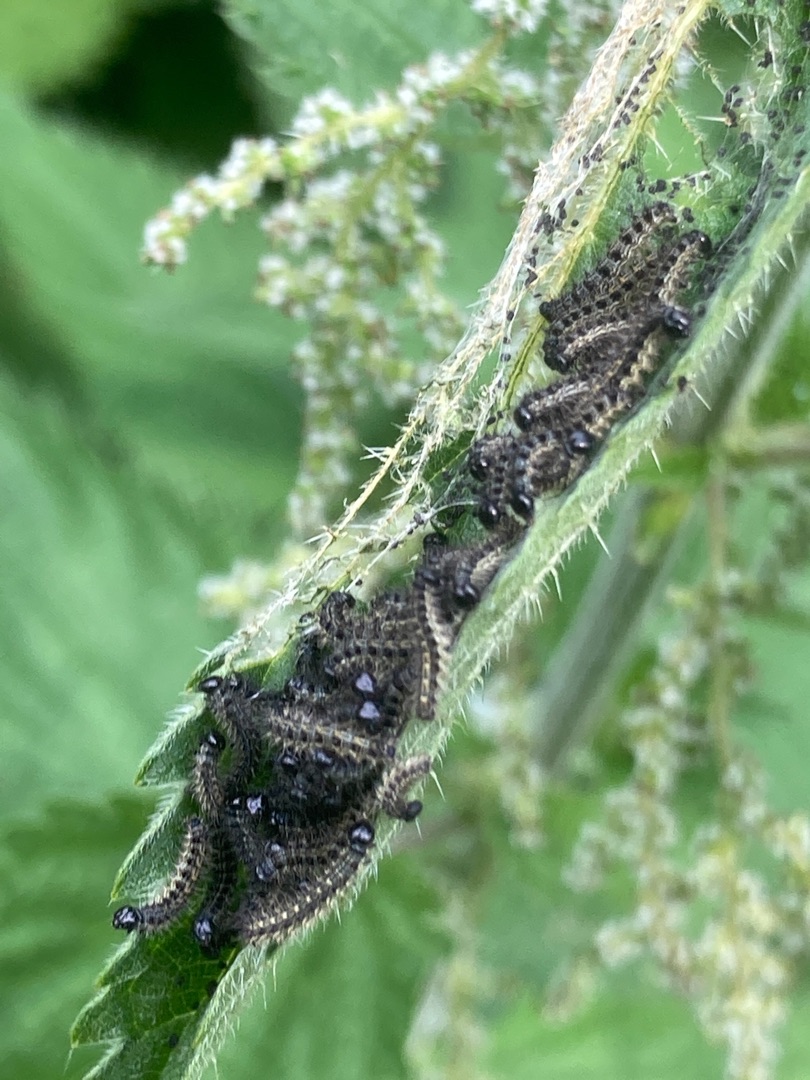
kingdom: Animalia
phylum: Arthropoda
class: Insecta
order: Lepidoptera
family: Nymphalidae
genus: Aglais
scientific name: Aglais urticae
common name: Nældens takvinge
